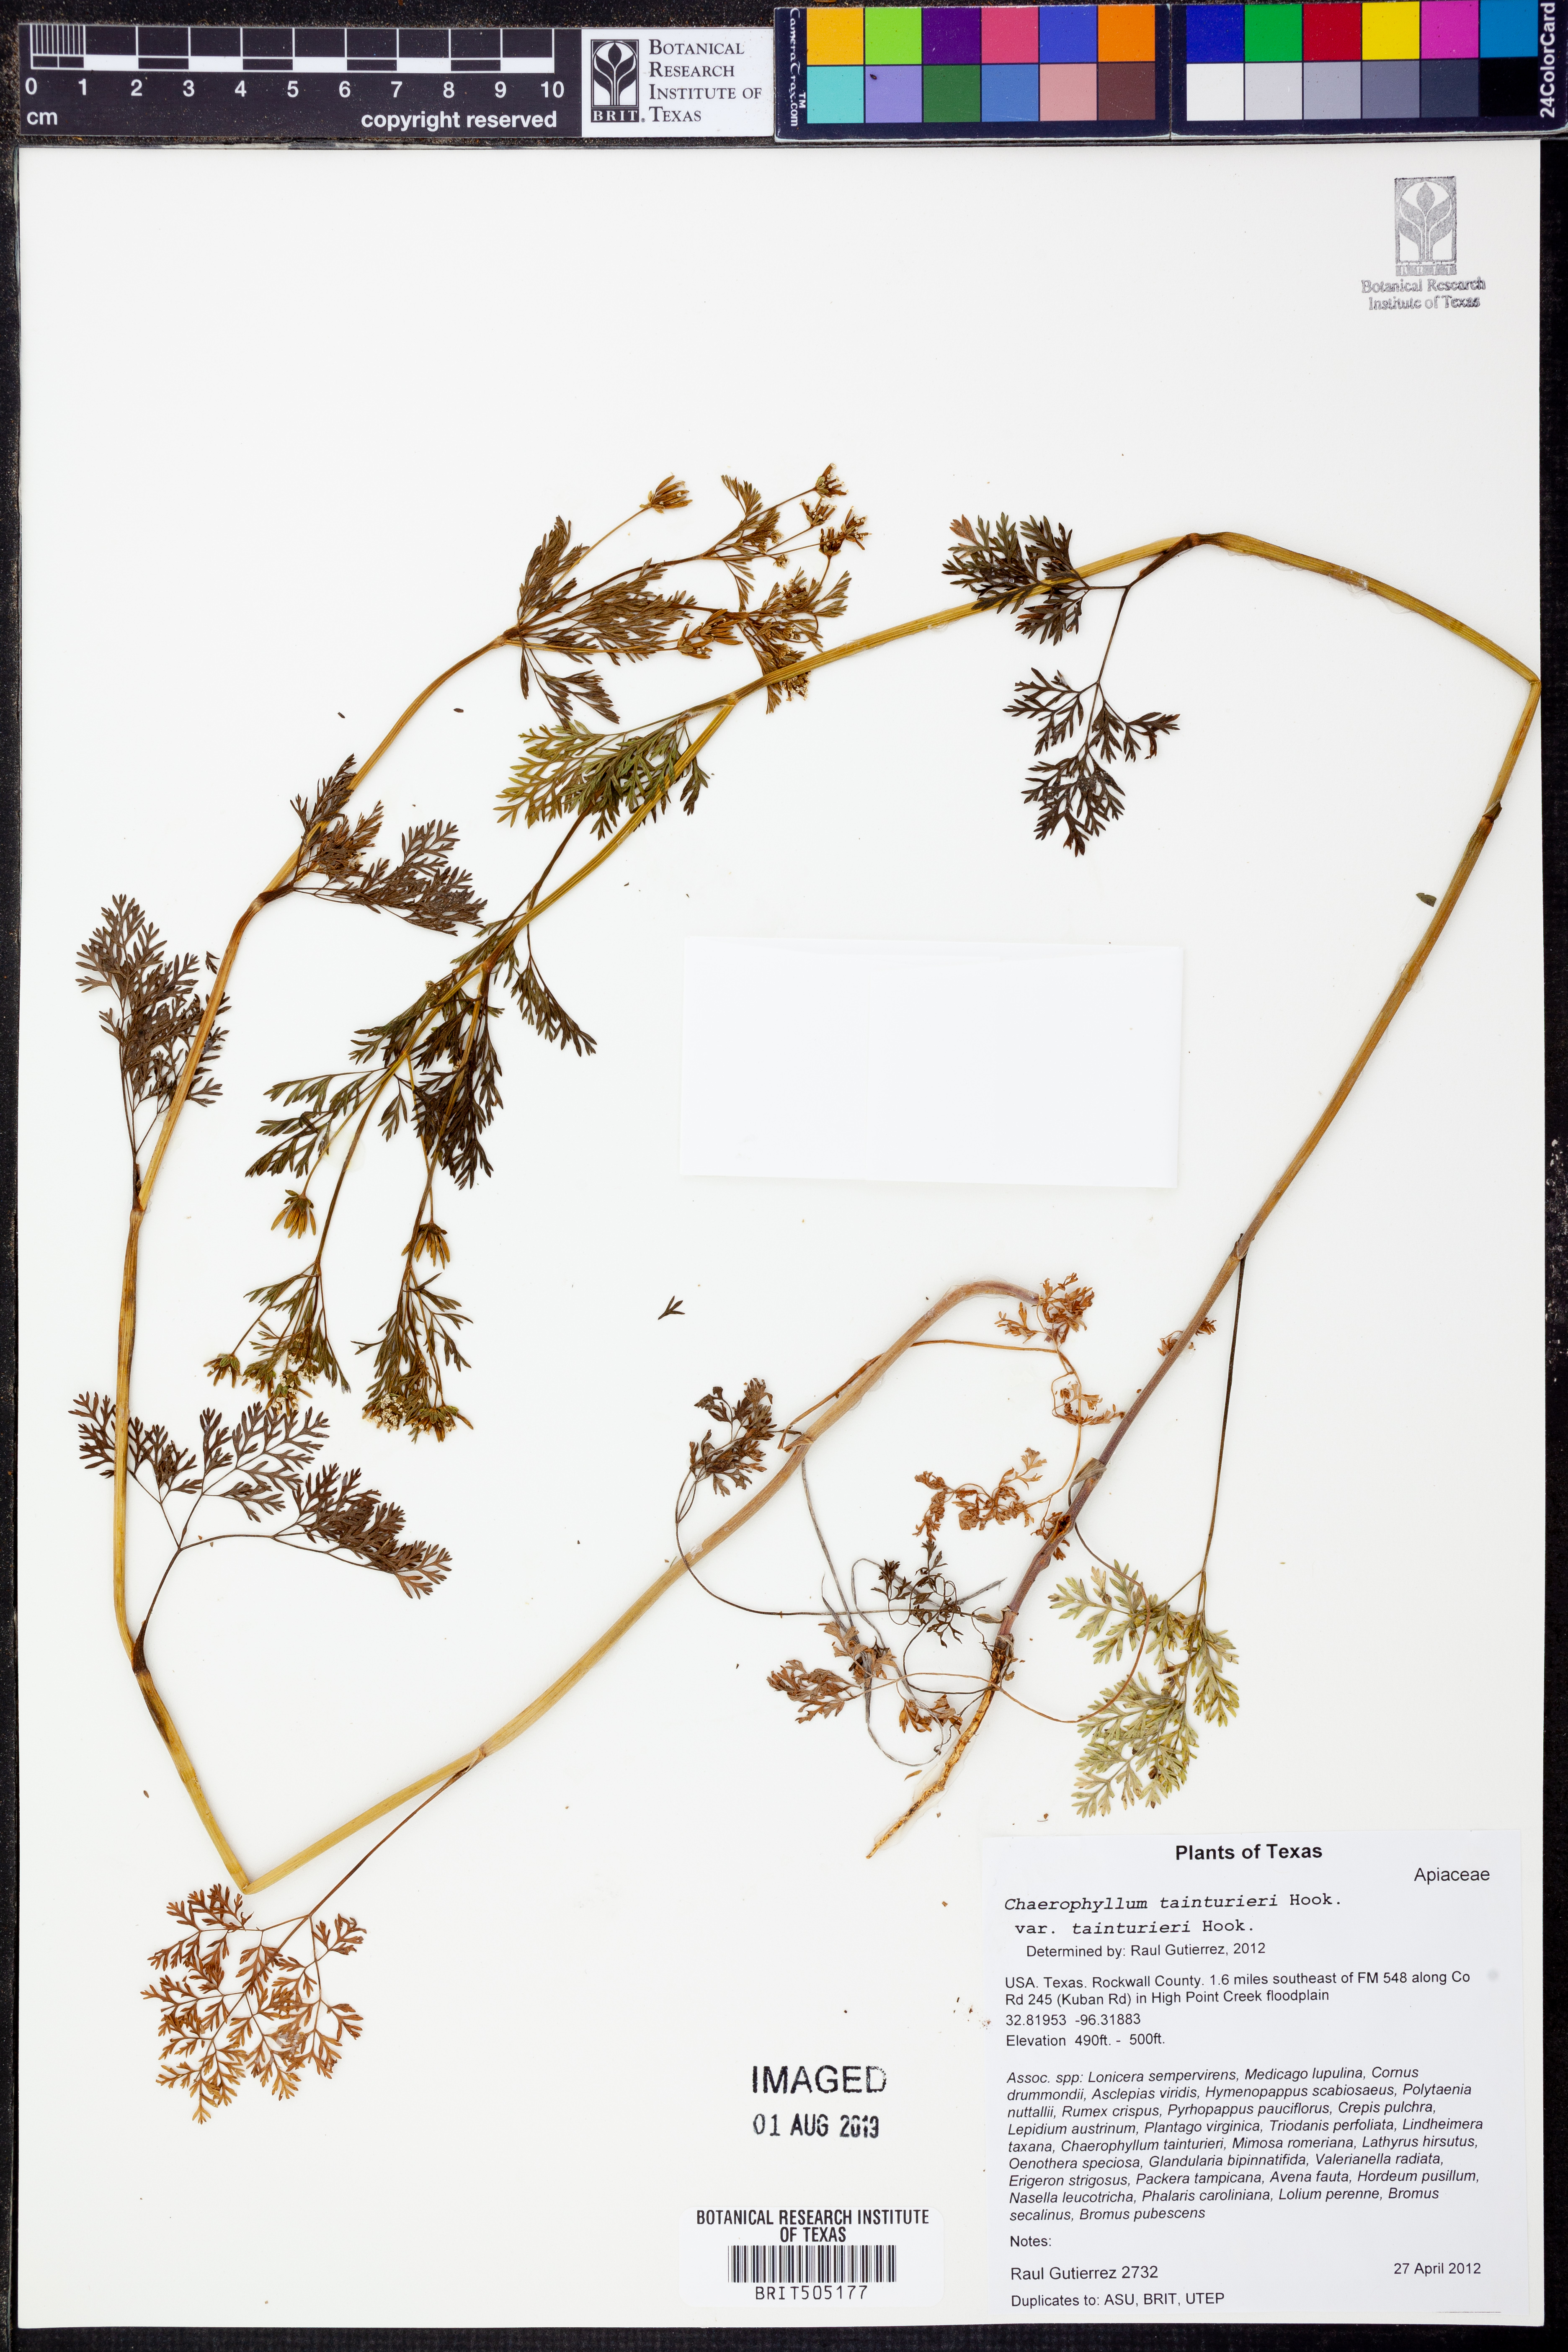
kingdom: Plantae
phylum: Tracheophyta
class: Magnoliopsida
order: Apiales
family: Apiaceae
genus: Chaerophyllum
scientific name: Chaerophyllum tainturieri
